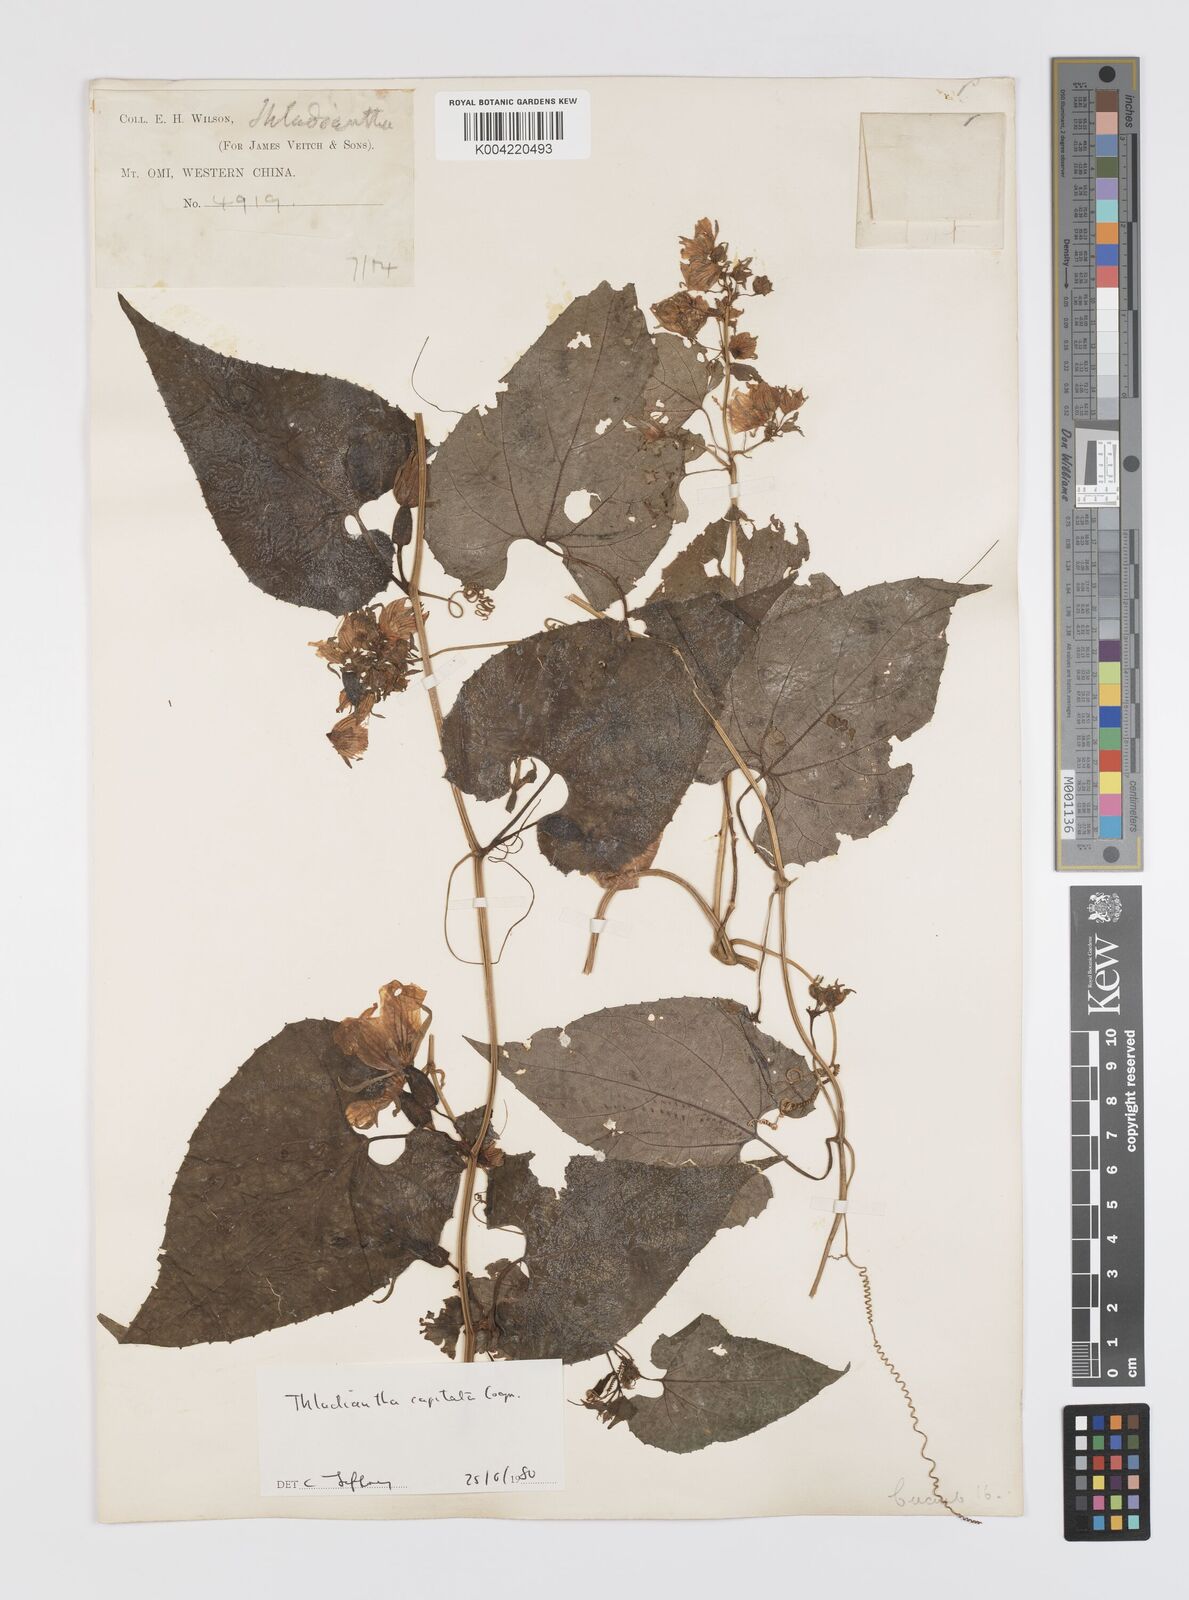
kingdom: Plantae
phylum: Tracheophyta
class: Magnoliopsida
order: Cucurbitales
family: Cucurbitaceae
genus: Thladiantha
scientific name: Thladiantha capitata
